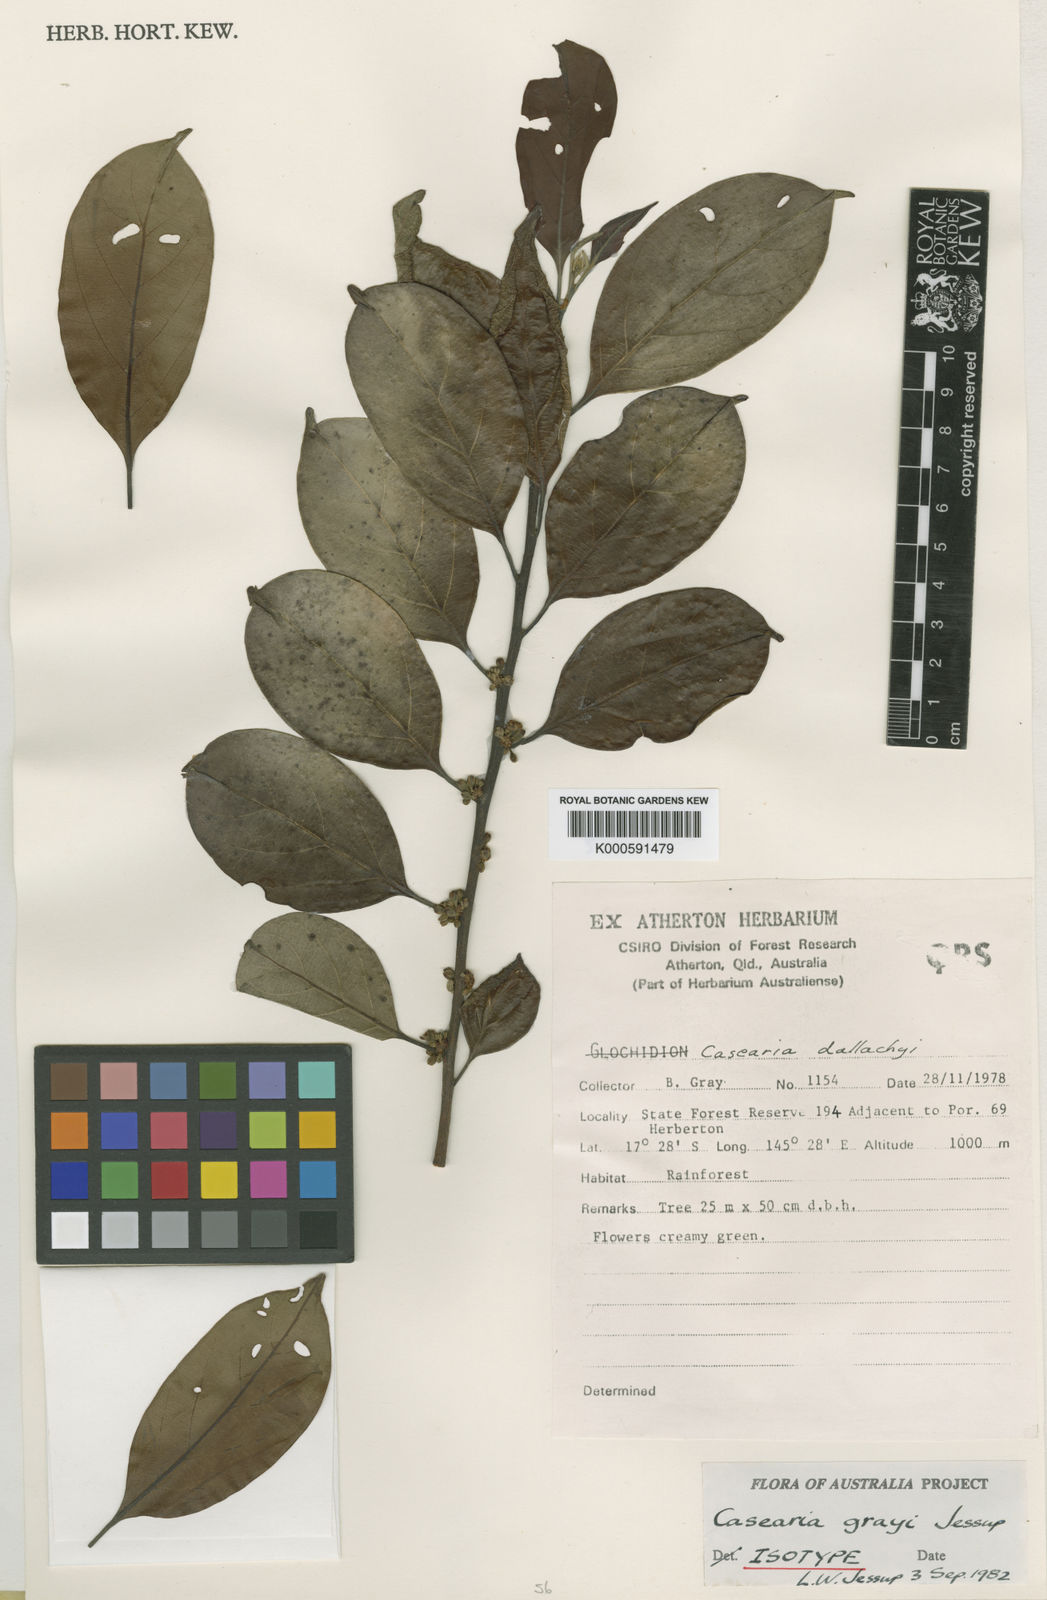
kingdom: Plantae
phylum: Tracheophyta
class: Magnoliopsida
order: Malpighiales
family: Salicaceae
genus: Casearia
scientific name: Casearia grayi
